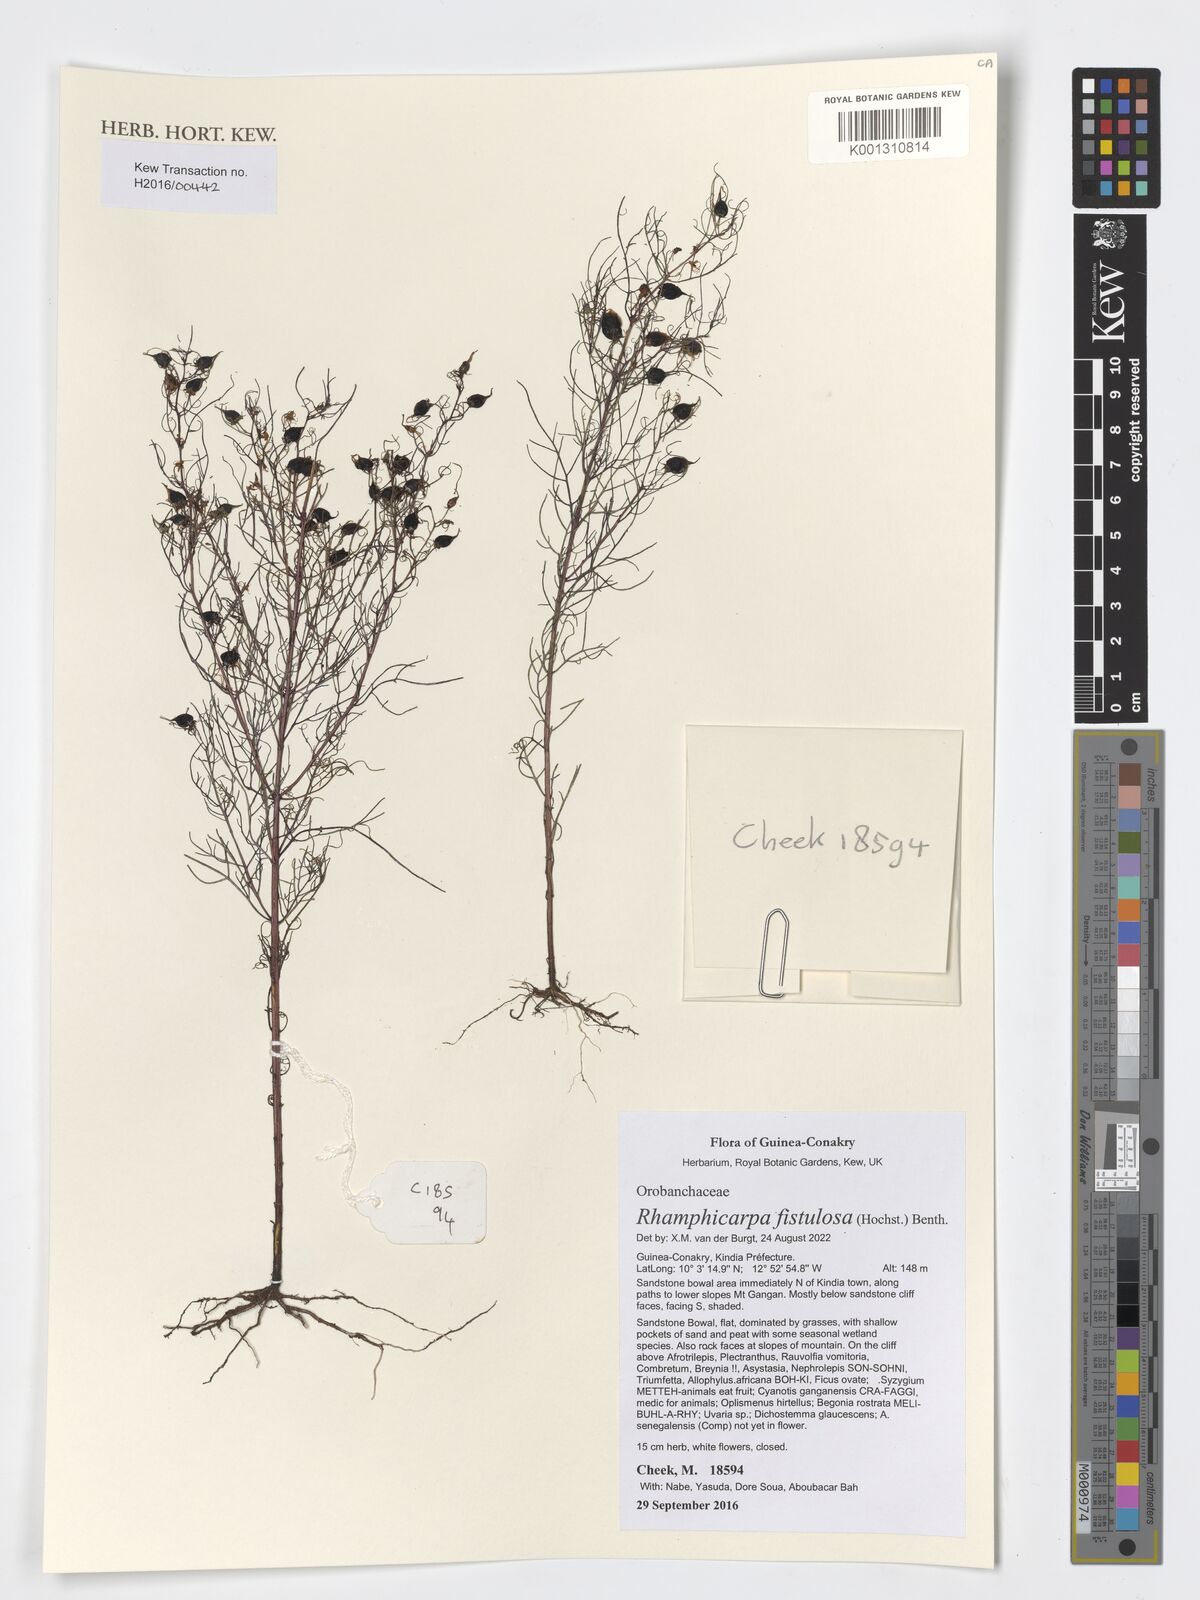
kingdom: Plantae
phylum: Tracheophyta
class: Magnoliopsida
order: Lamiales
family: Orobanchaceae
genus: Rhamphicarpa
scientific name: Rhamphicarpa fistulosa
